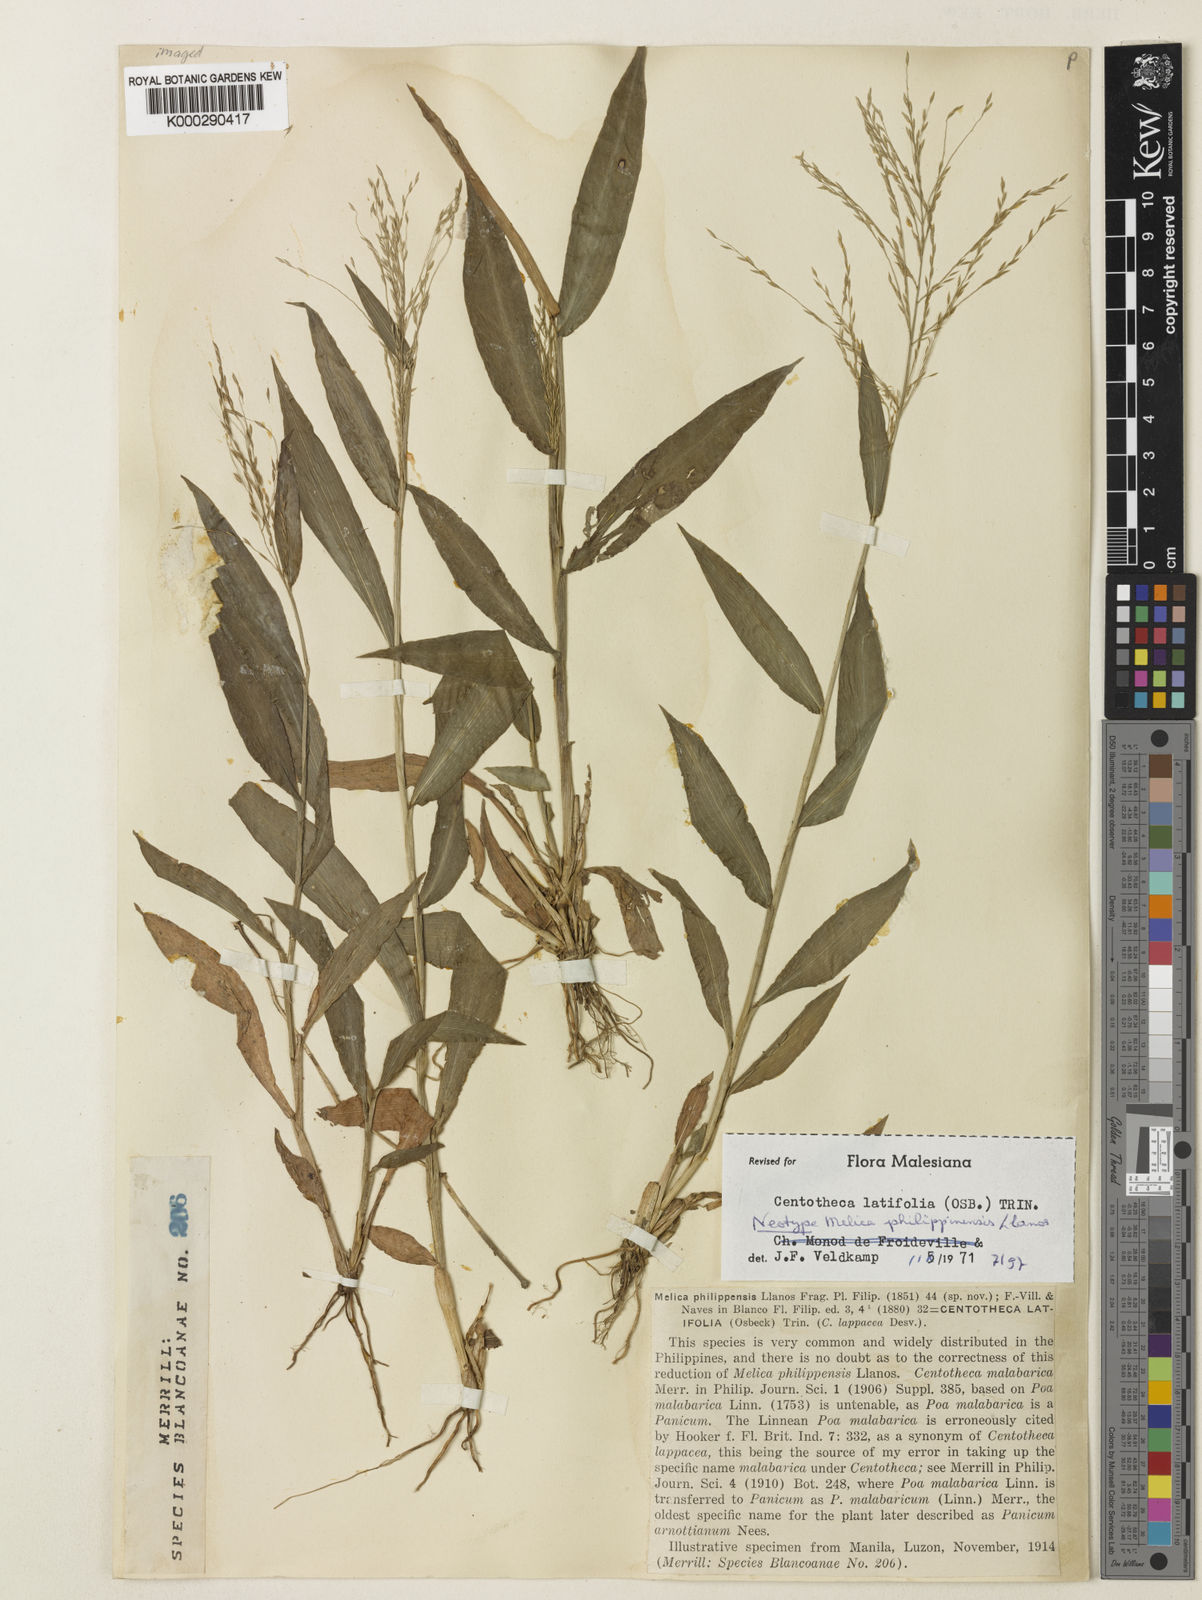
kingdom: Plantae
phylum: Tracheophyta
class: Liliopsida
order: Poales
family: Poaceae
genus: Centotheca
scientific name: Centotheca lappacea
